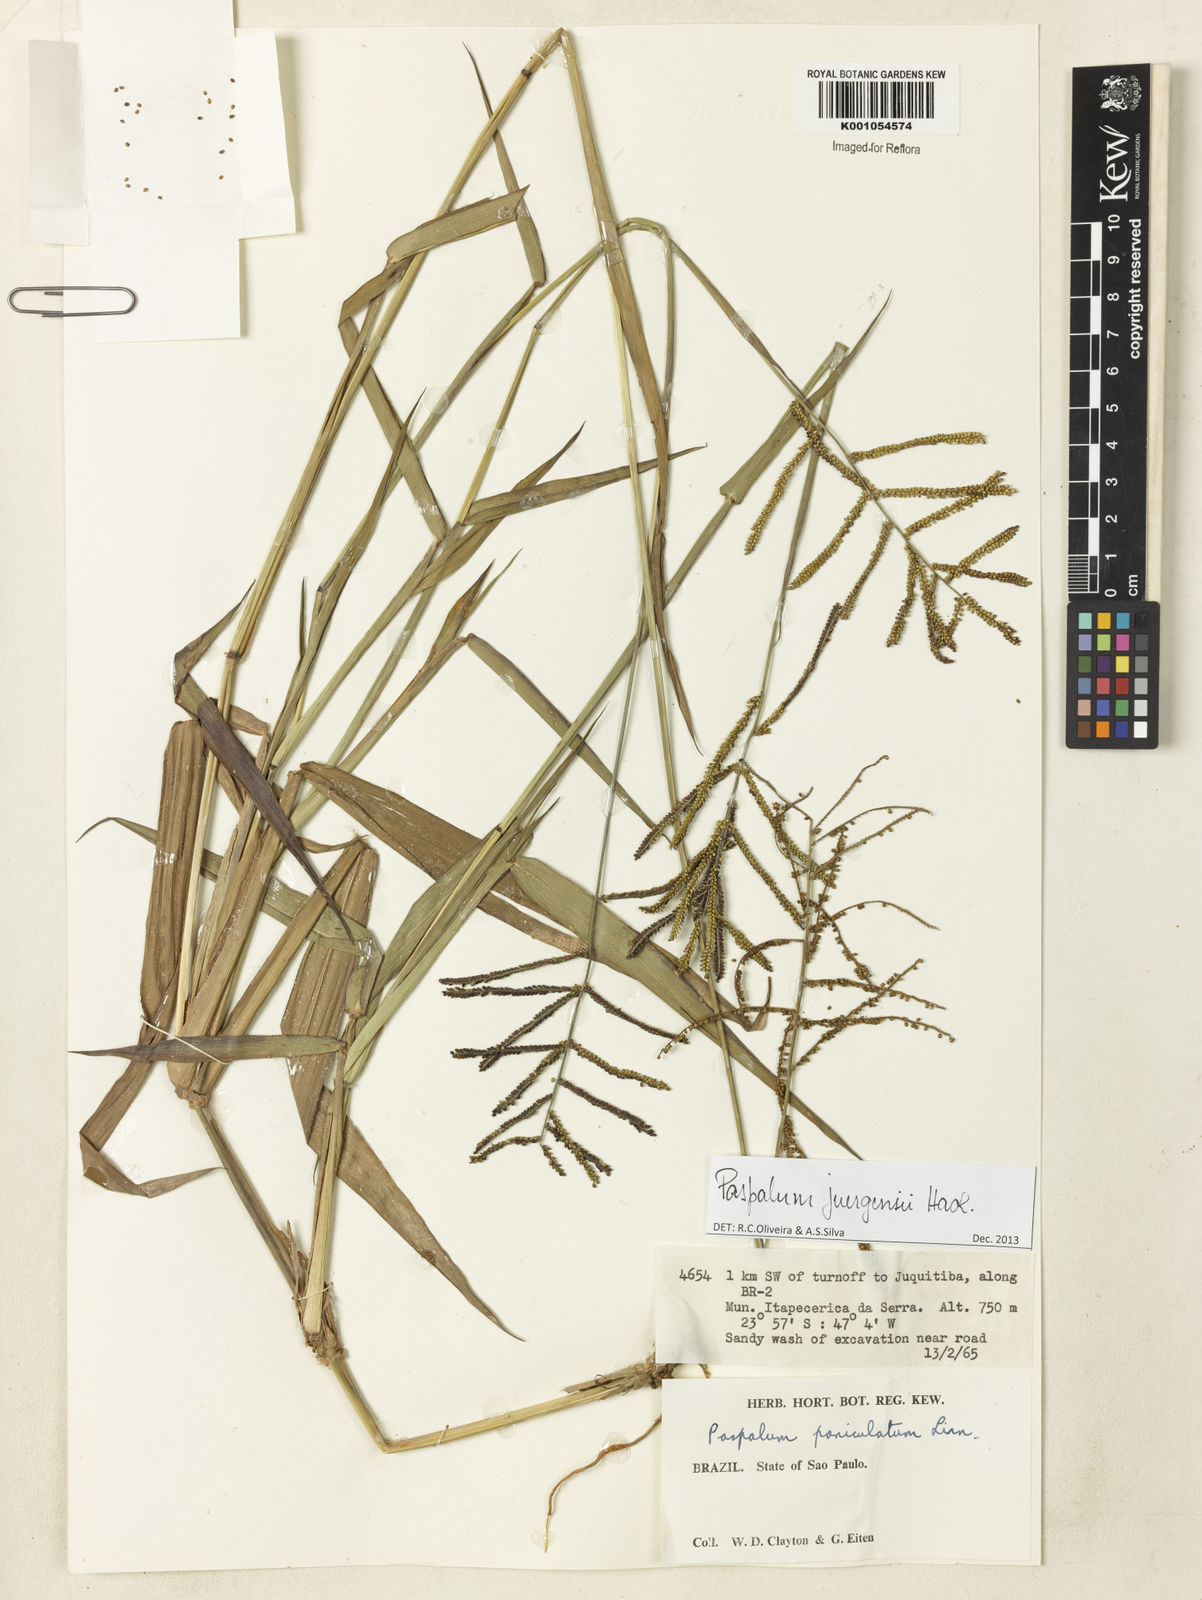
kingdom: Plantae
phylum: Tracheophyta
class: Liliopsida
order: Poales
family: Poaceae
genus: Paspalum
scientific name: Paspalum juergensii
